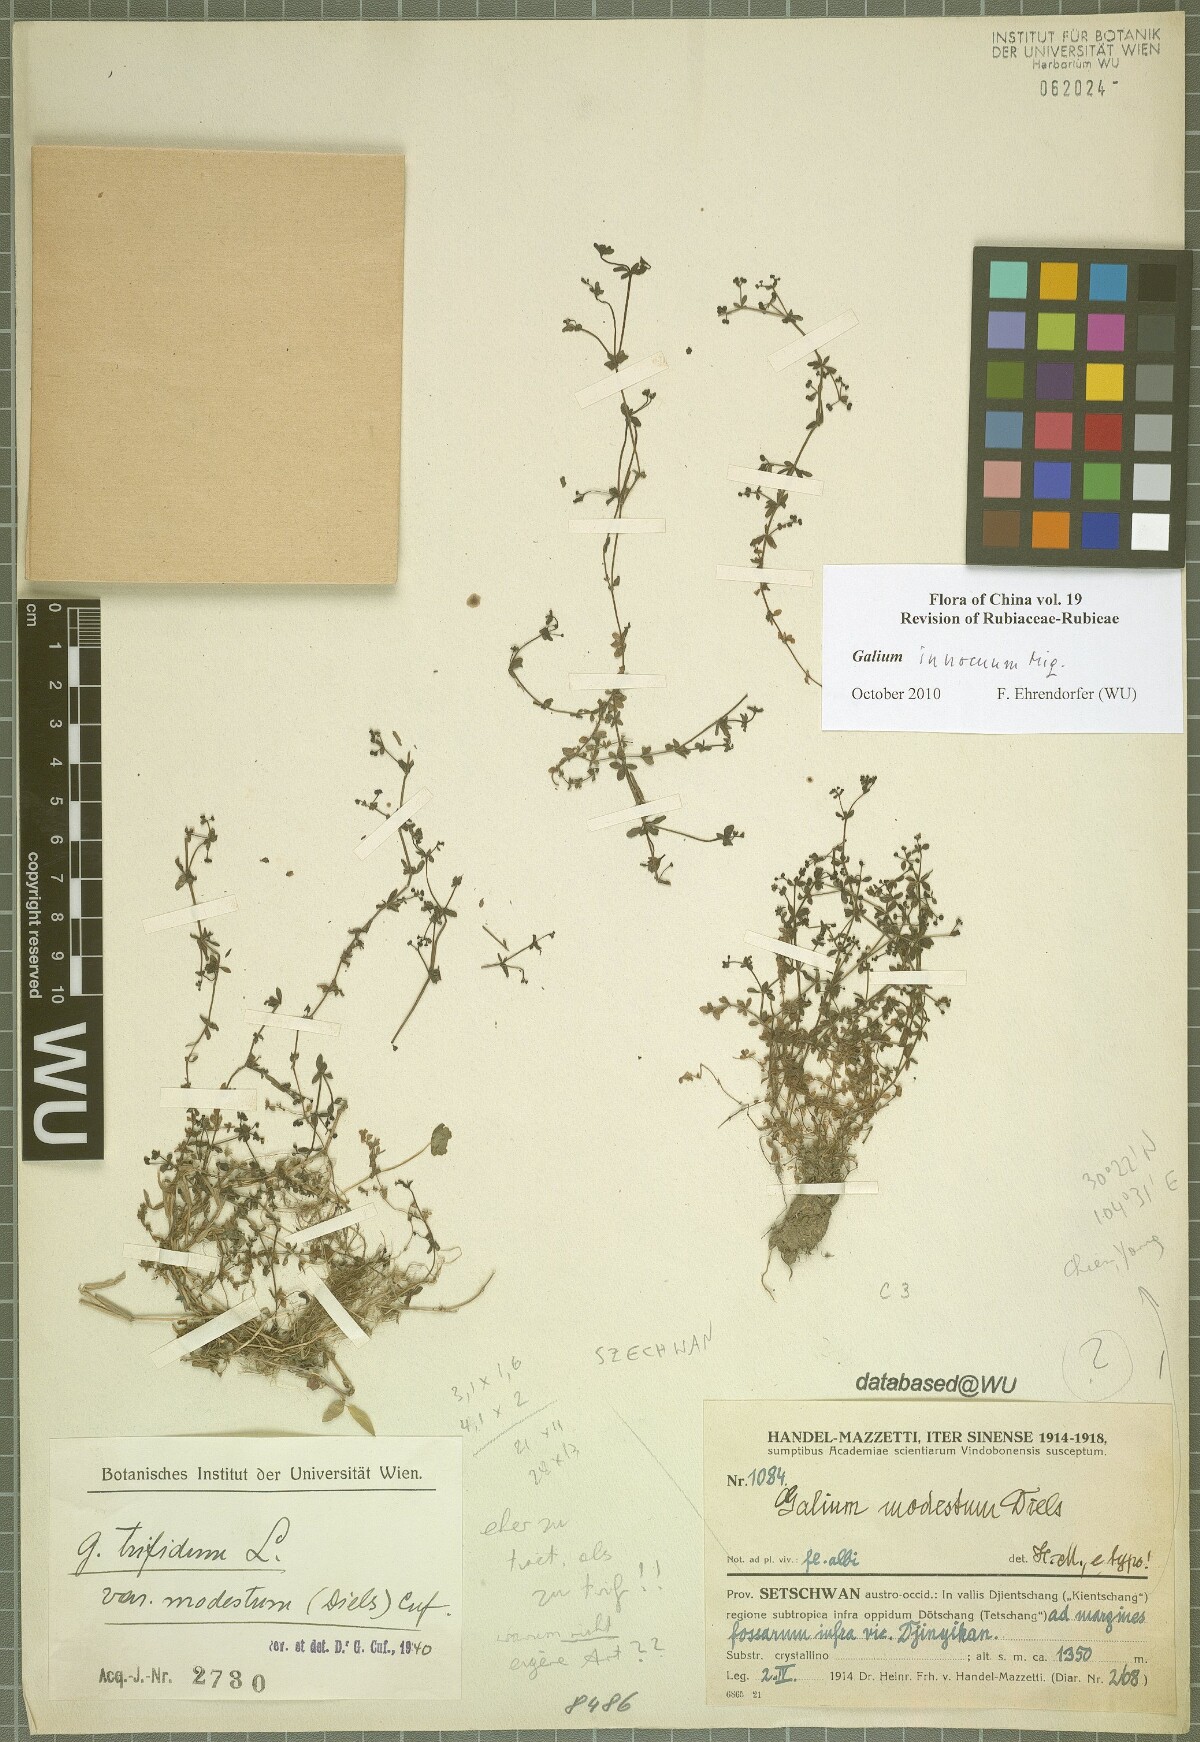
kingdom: Plantae
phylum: Tracheophyta
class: Magnoliopsida
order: Gentianales
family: Rubiaceae
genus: Galium
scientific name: Galium innocuum
